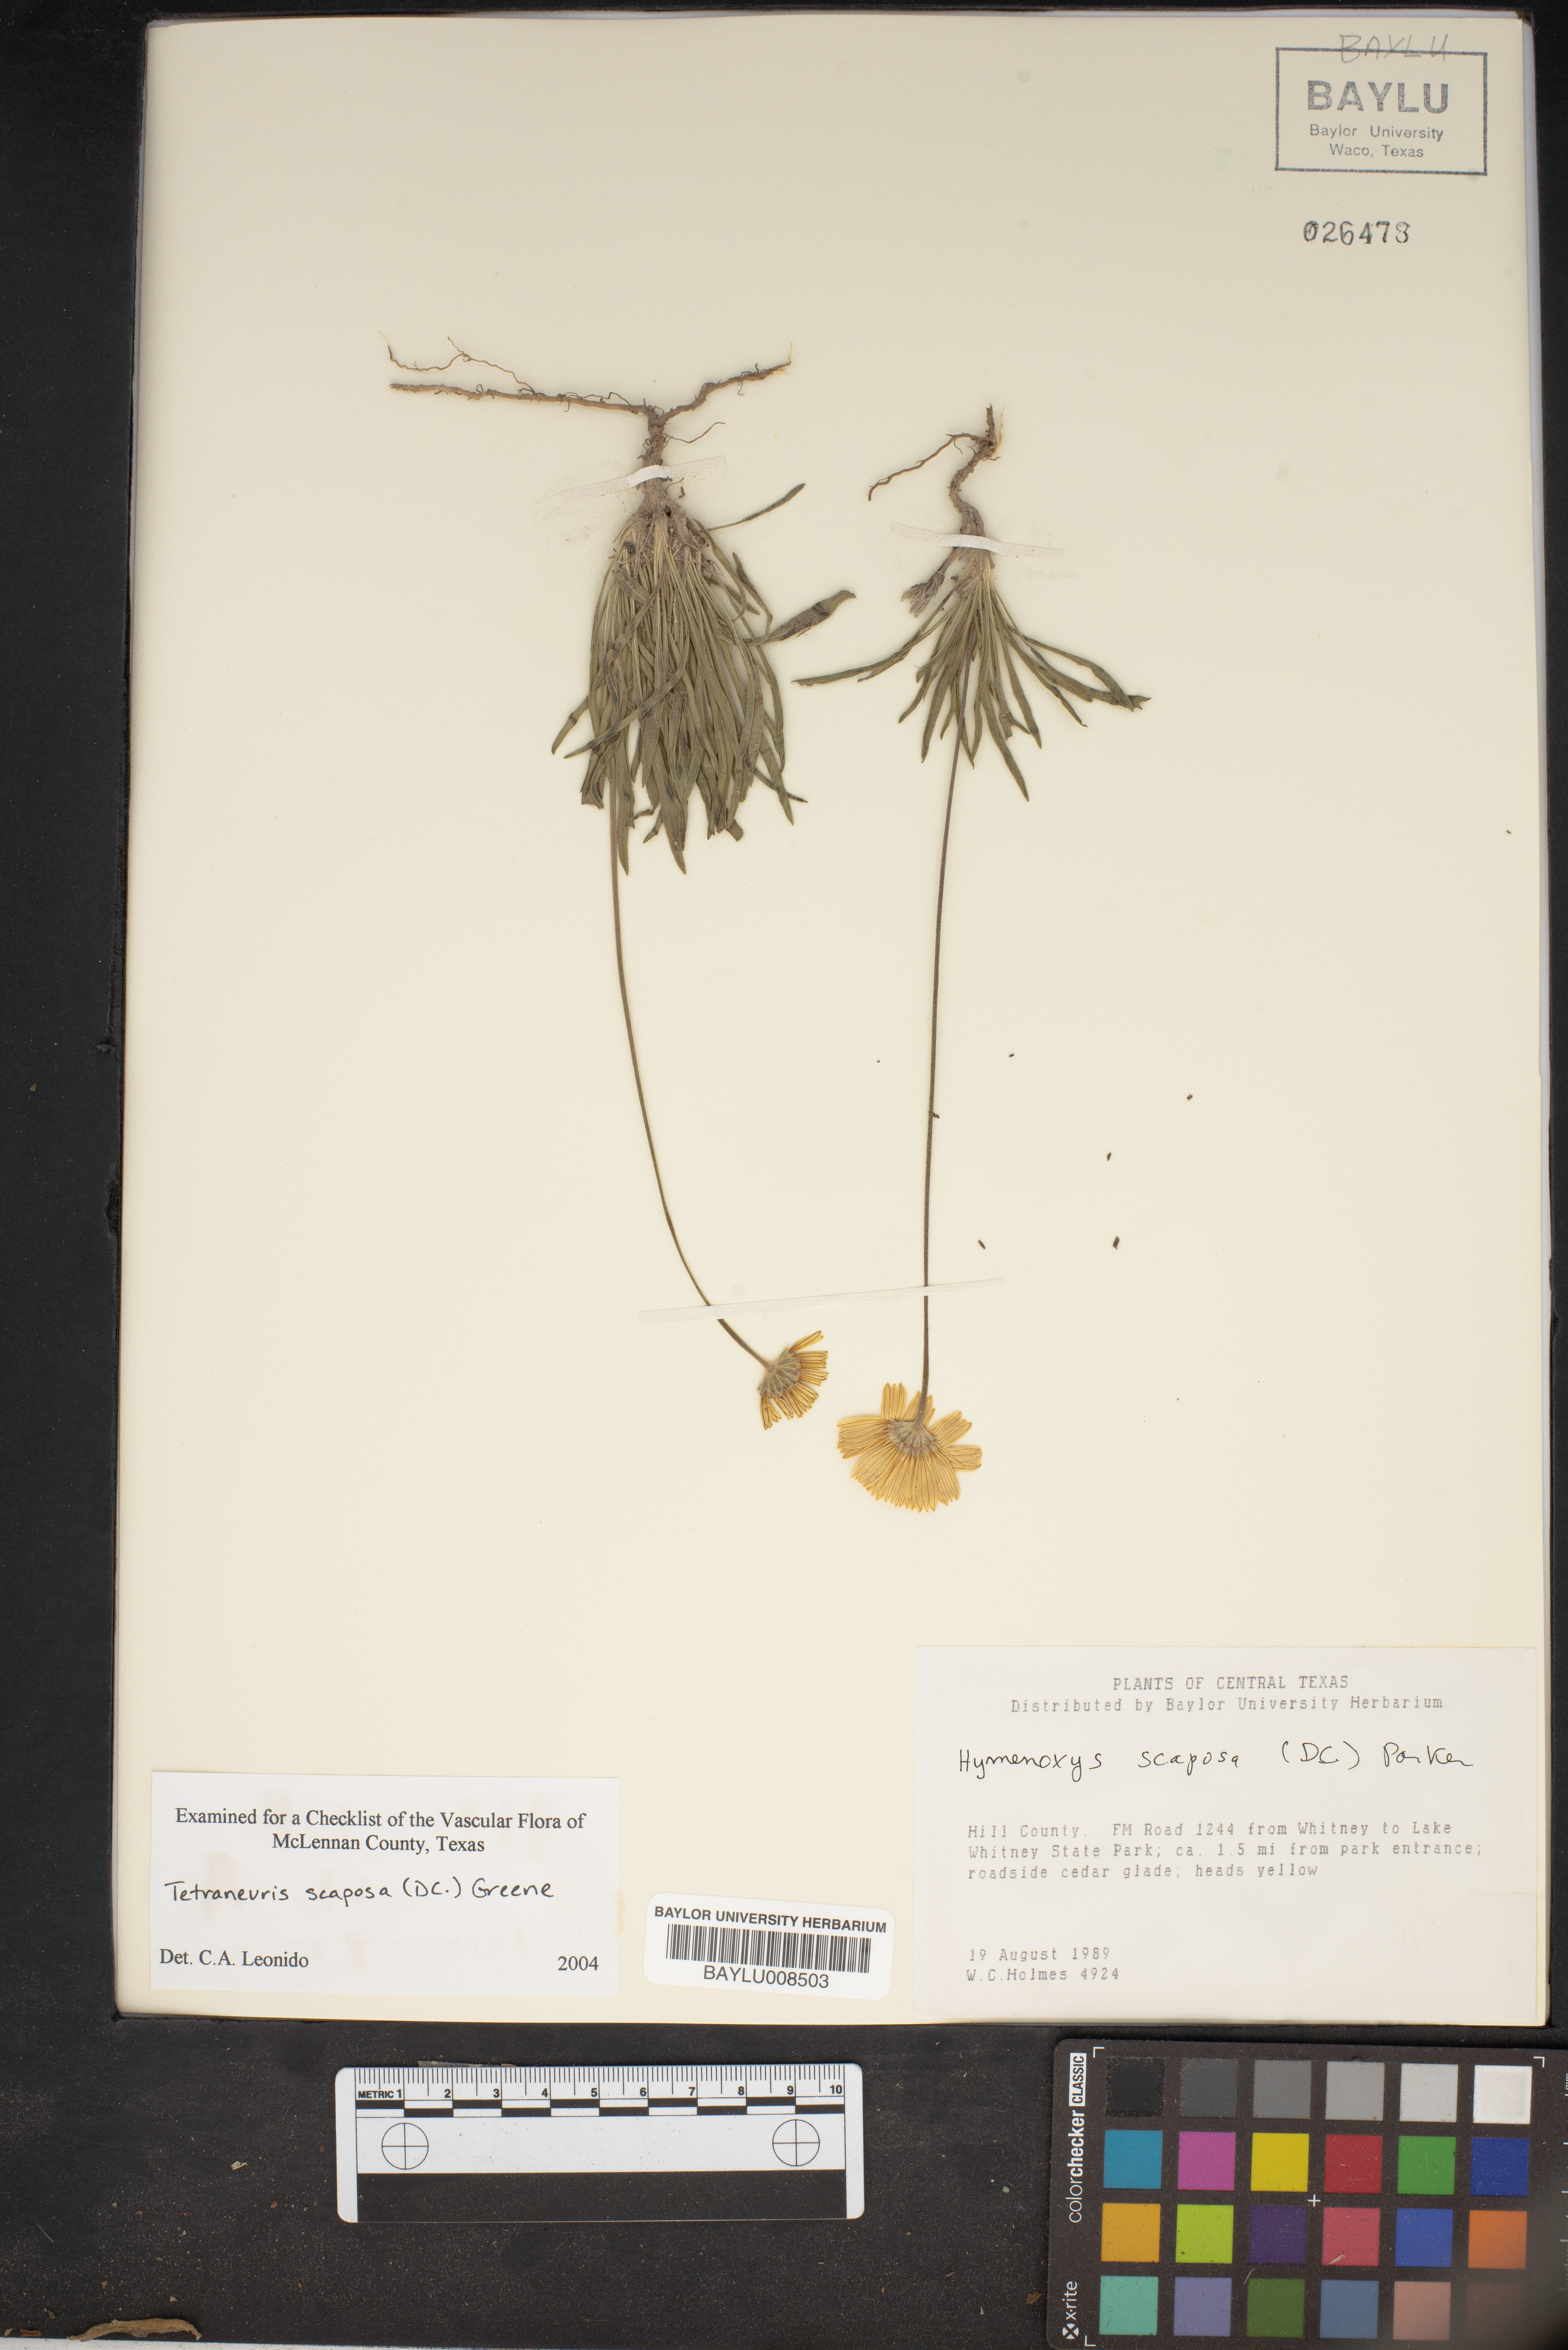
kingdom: Plantae
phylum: Tracheophyta
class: Magnoliopsida
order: Asterales
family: Asteraceae
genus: Tetraneuris
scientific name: Tetraneuris scaposa
